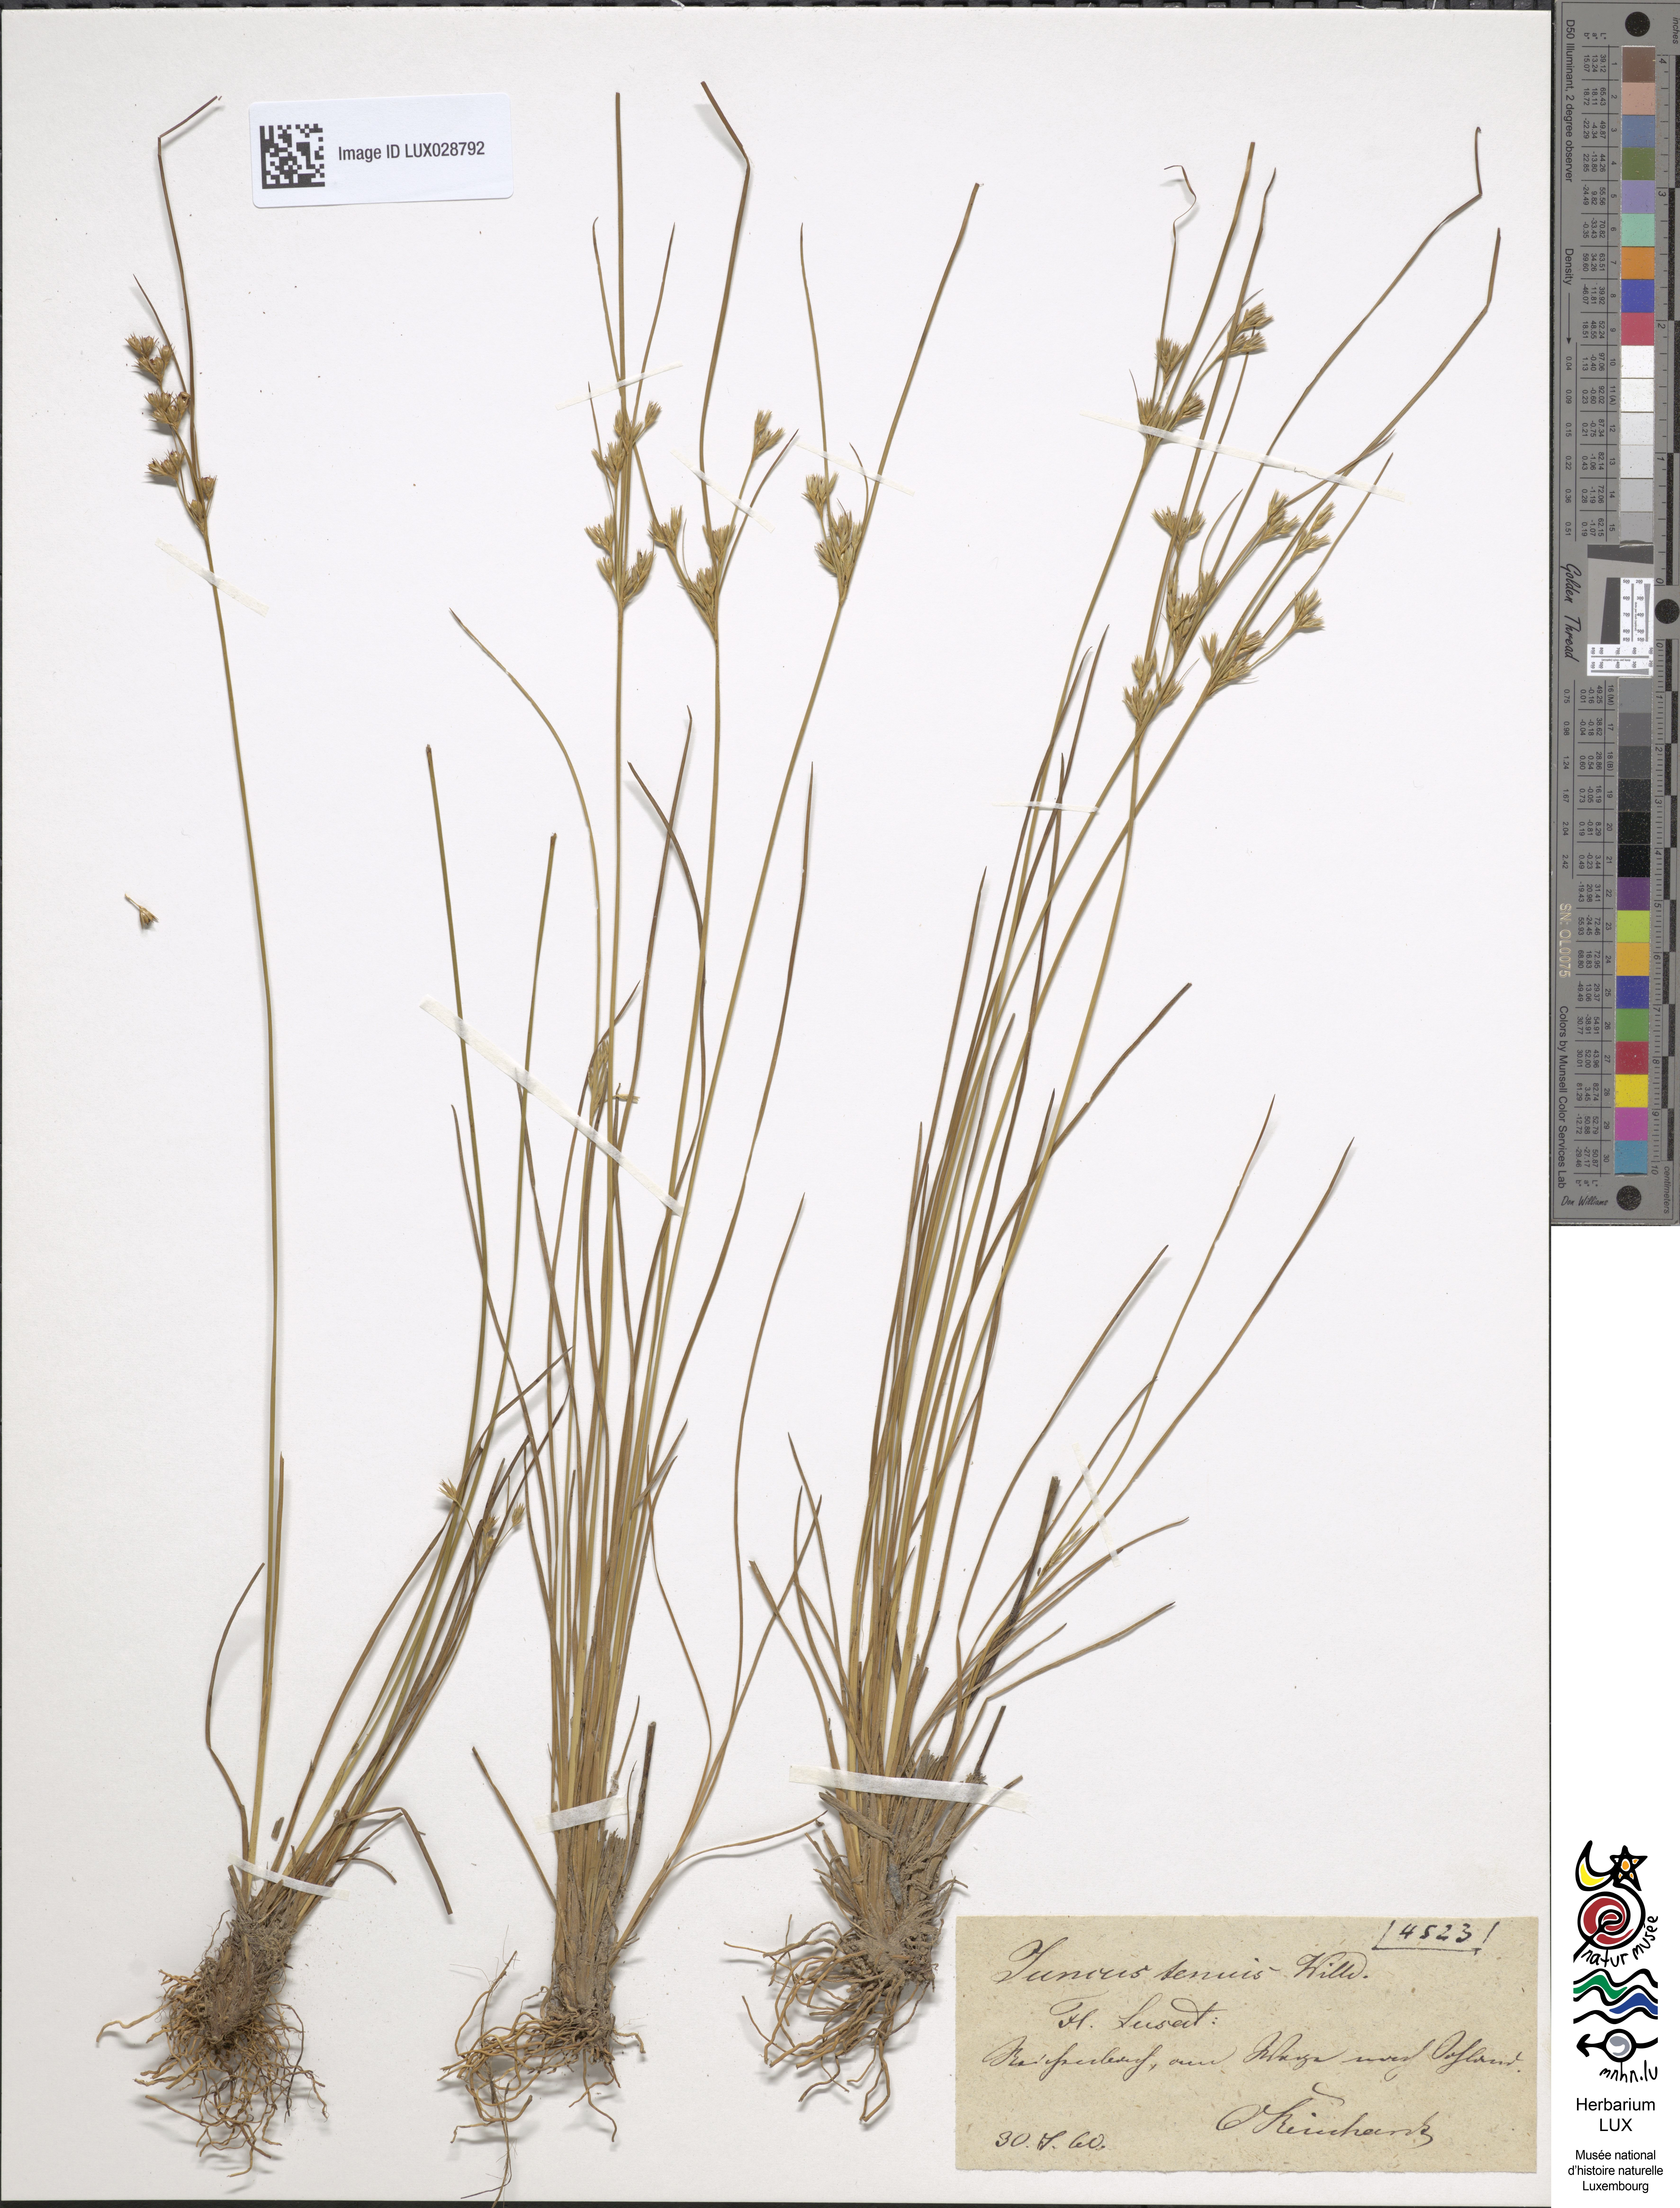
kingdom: Plantae
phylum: Tracheophyta
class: Liliopsida
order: Poales
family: Juncaceae
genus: Juncus
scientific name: Juncus tenuis
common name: Slender rush
